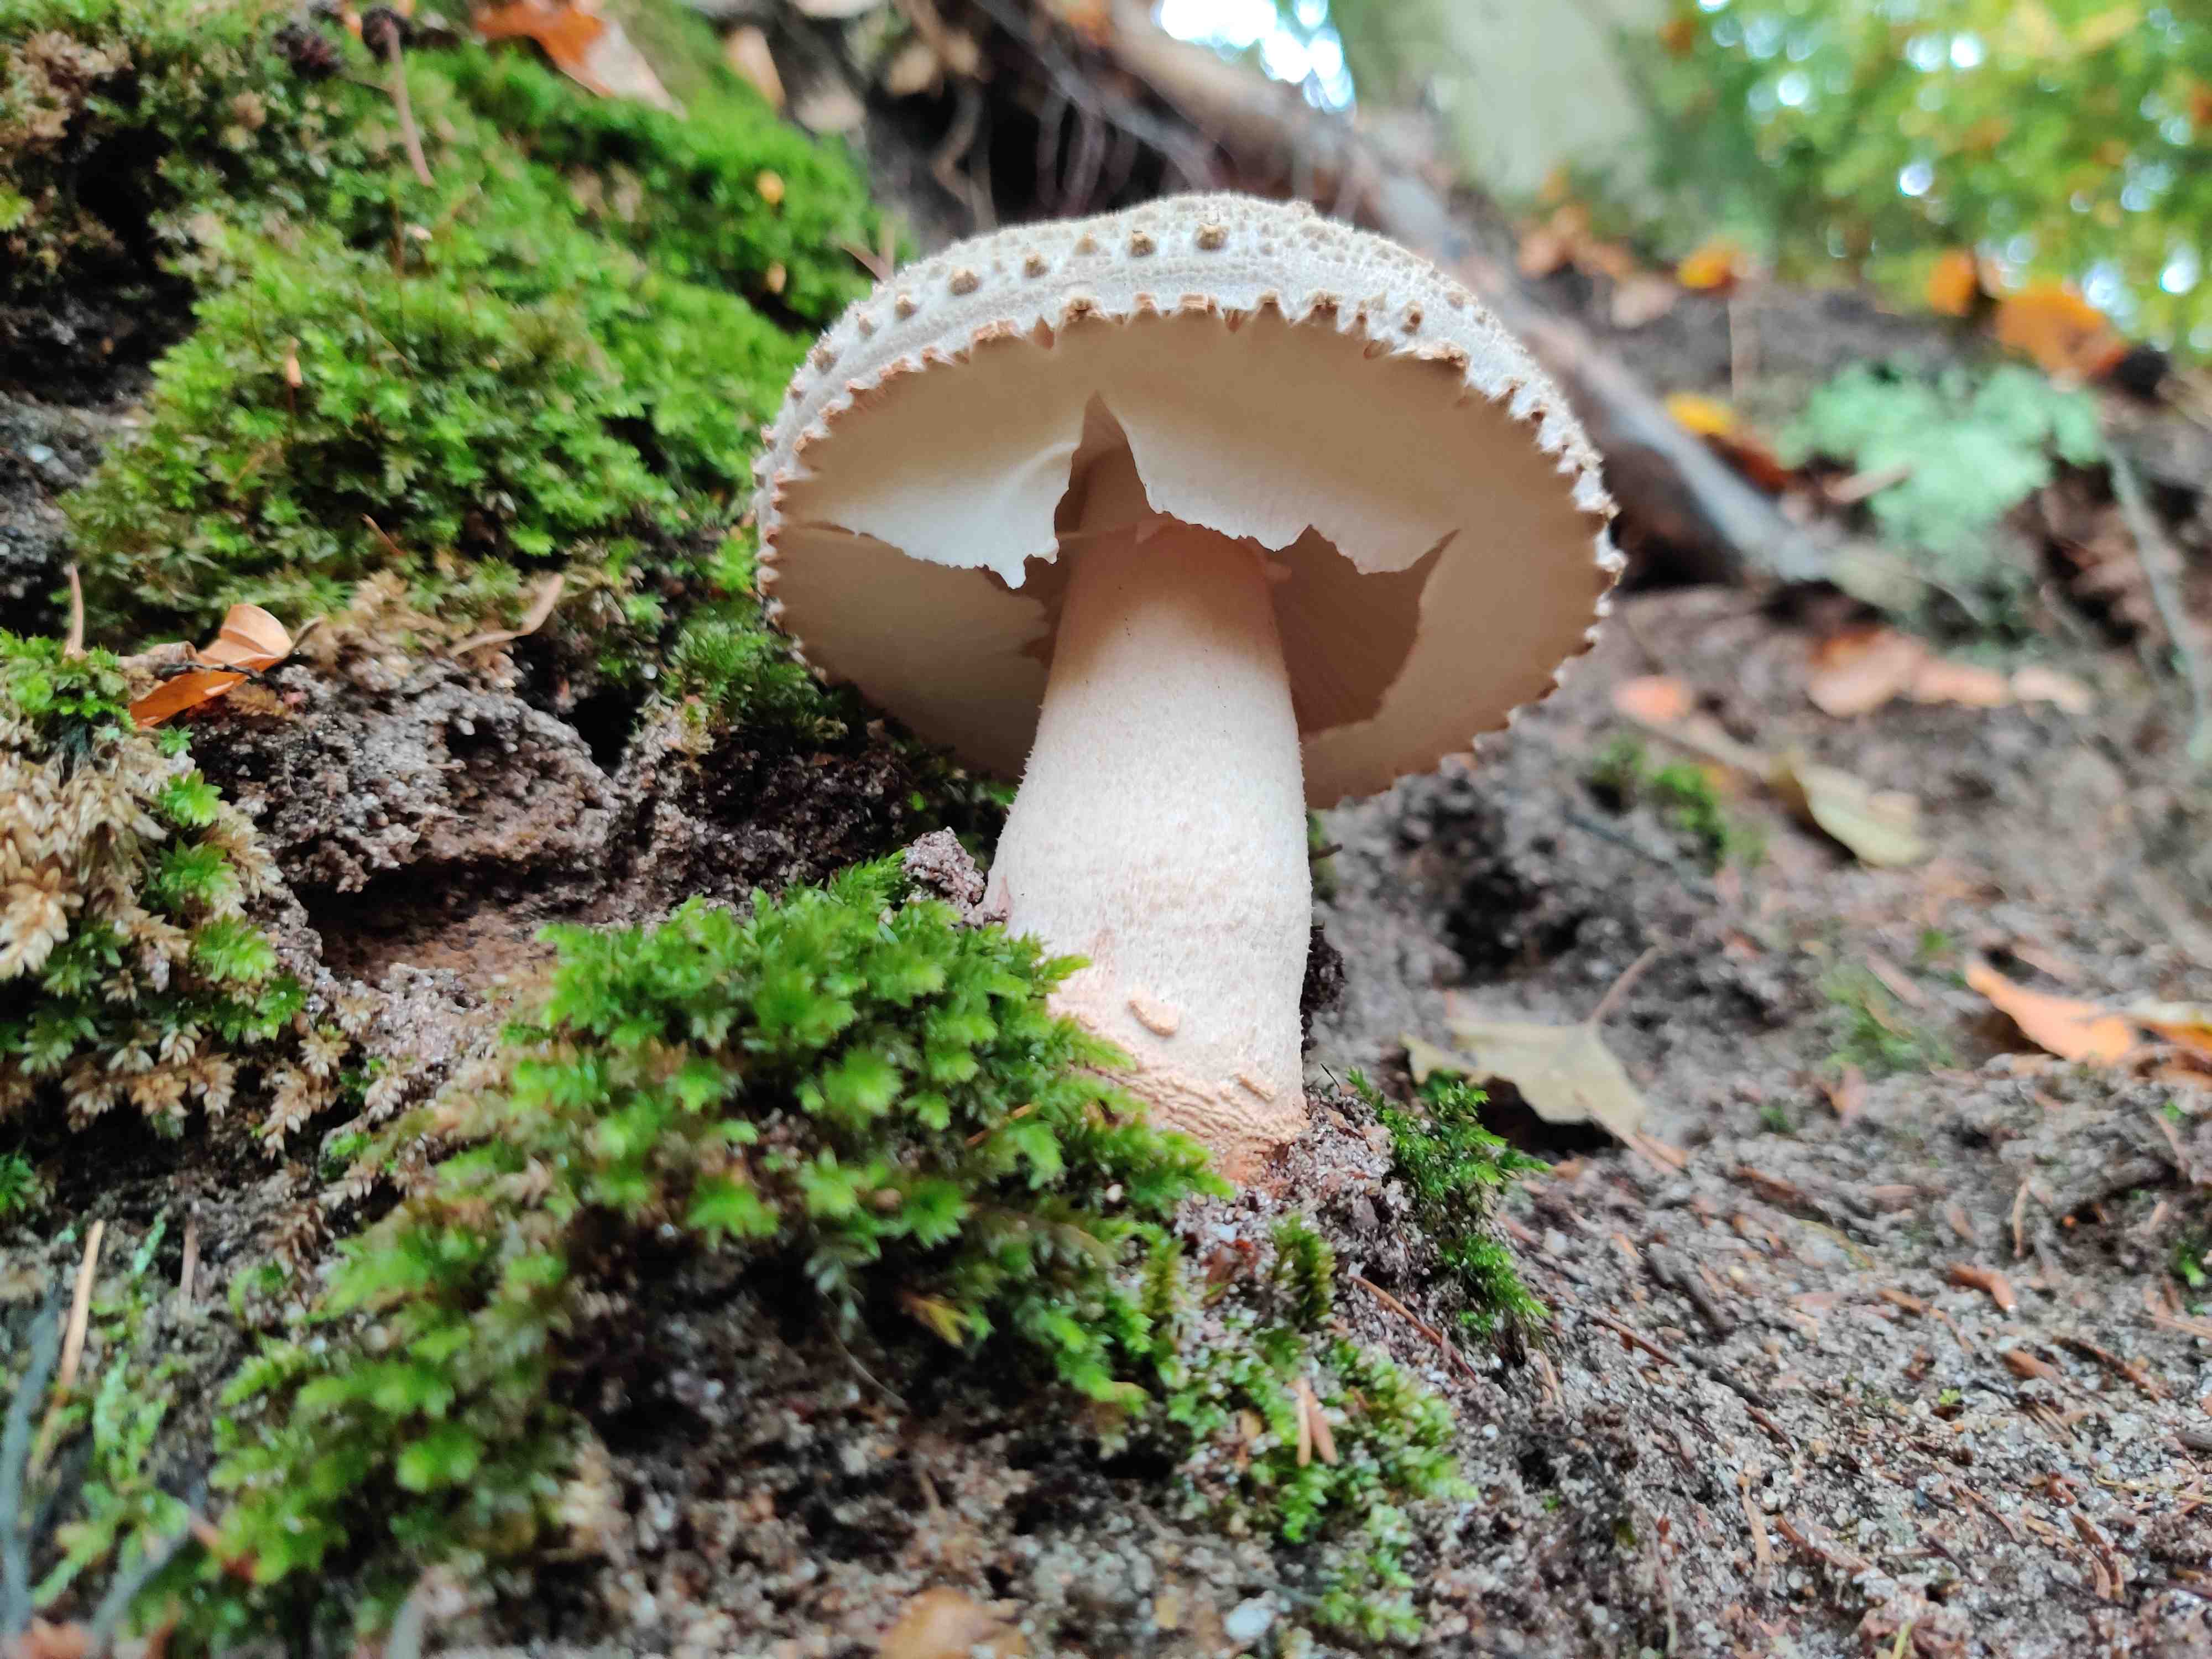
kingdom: Fungi
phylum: Basidiomycota
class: Agaricomycetes
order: Agaricales
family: Amanitaceae
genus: Amanita
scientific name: Amanita rubescens
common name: rødmende fluesvamp
